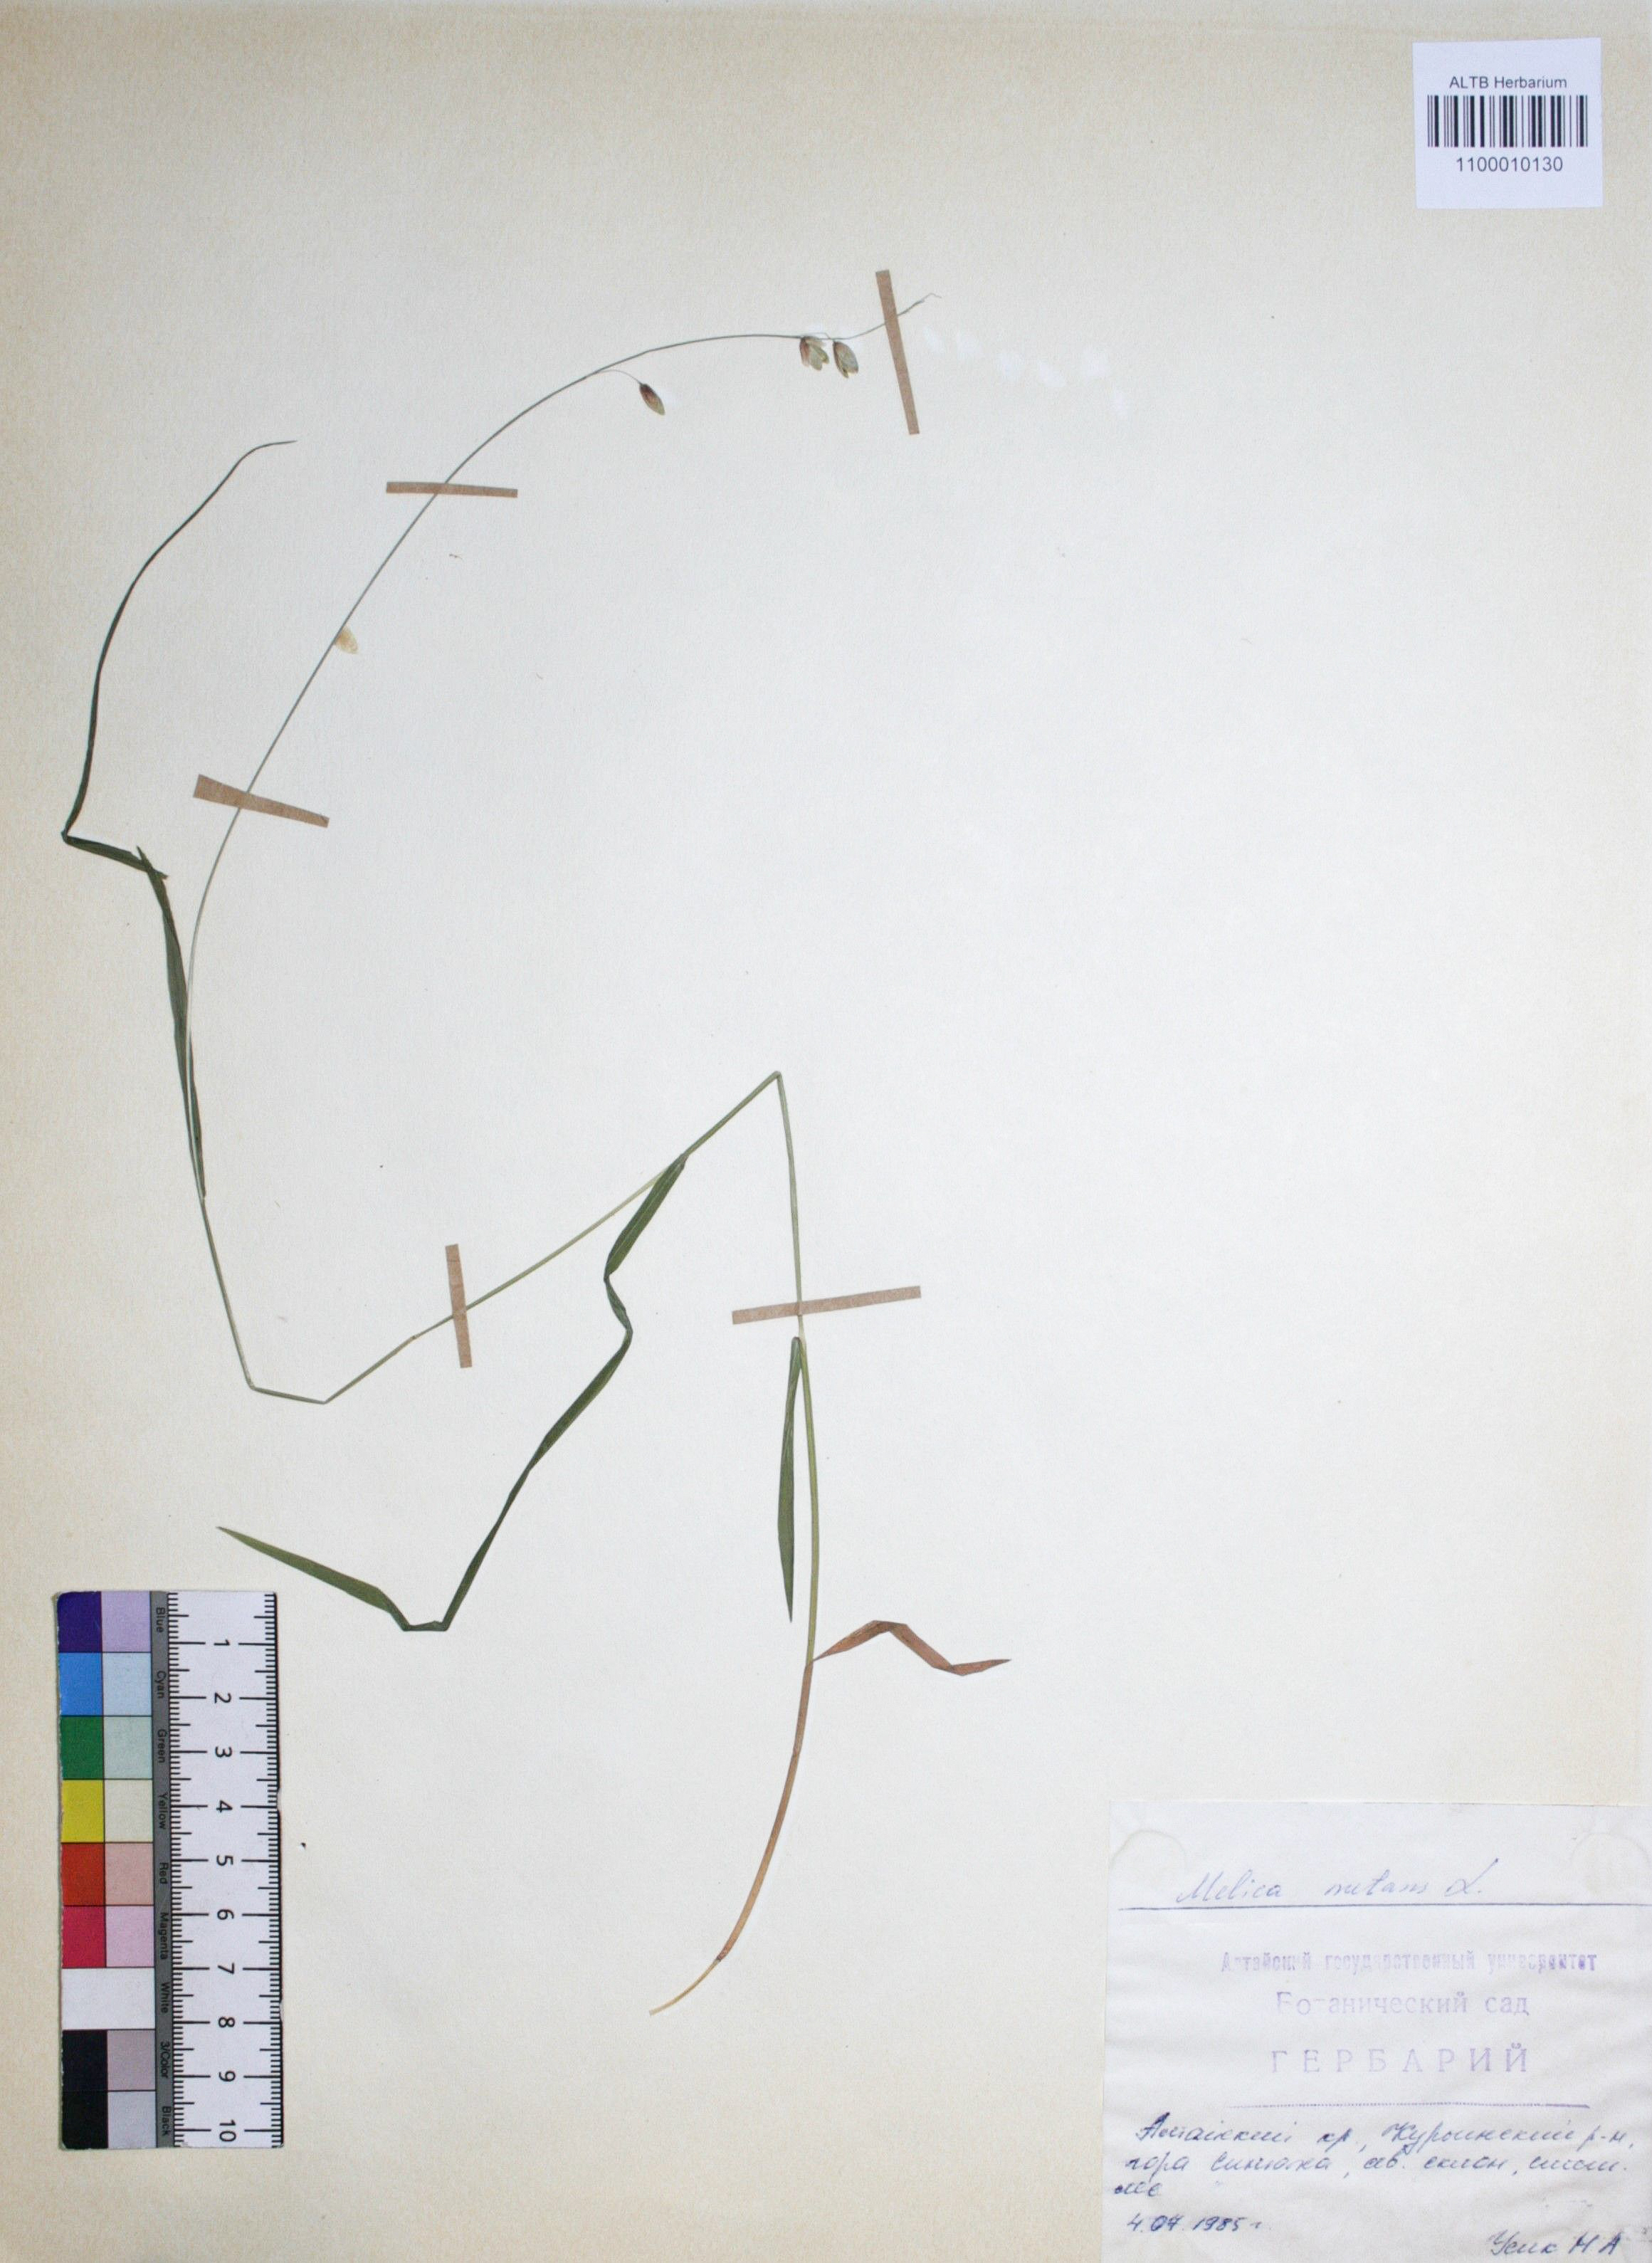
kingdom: Plantae
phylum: Tracheophyta
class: Liliopsida
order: Poales
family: Poaceae
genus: Melica
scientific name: Melica nutans
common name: Mountain melick
